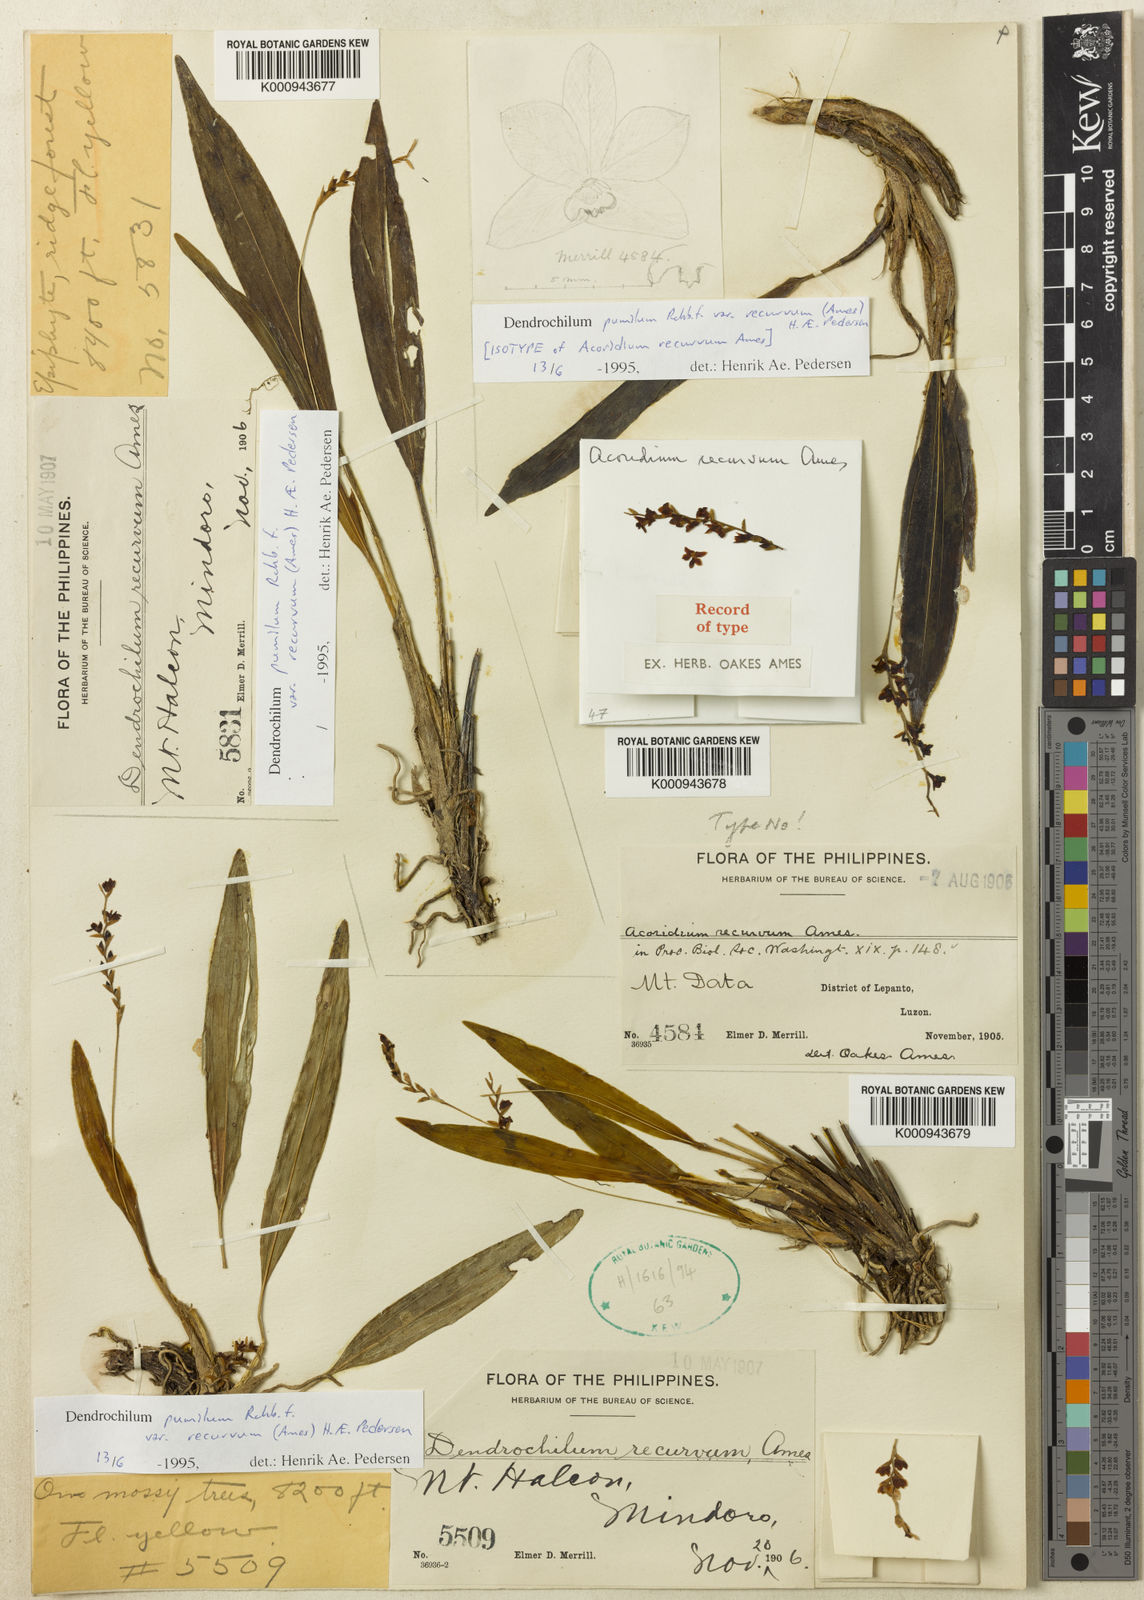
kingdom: Plantae
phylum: Tracheophyta
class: Liliopsida
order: Asparagales
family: Orchidaceae
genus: Coelogyne
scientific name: Coelogyne pumila
